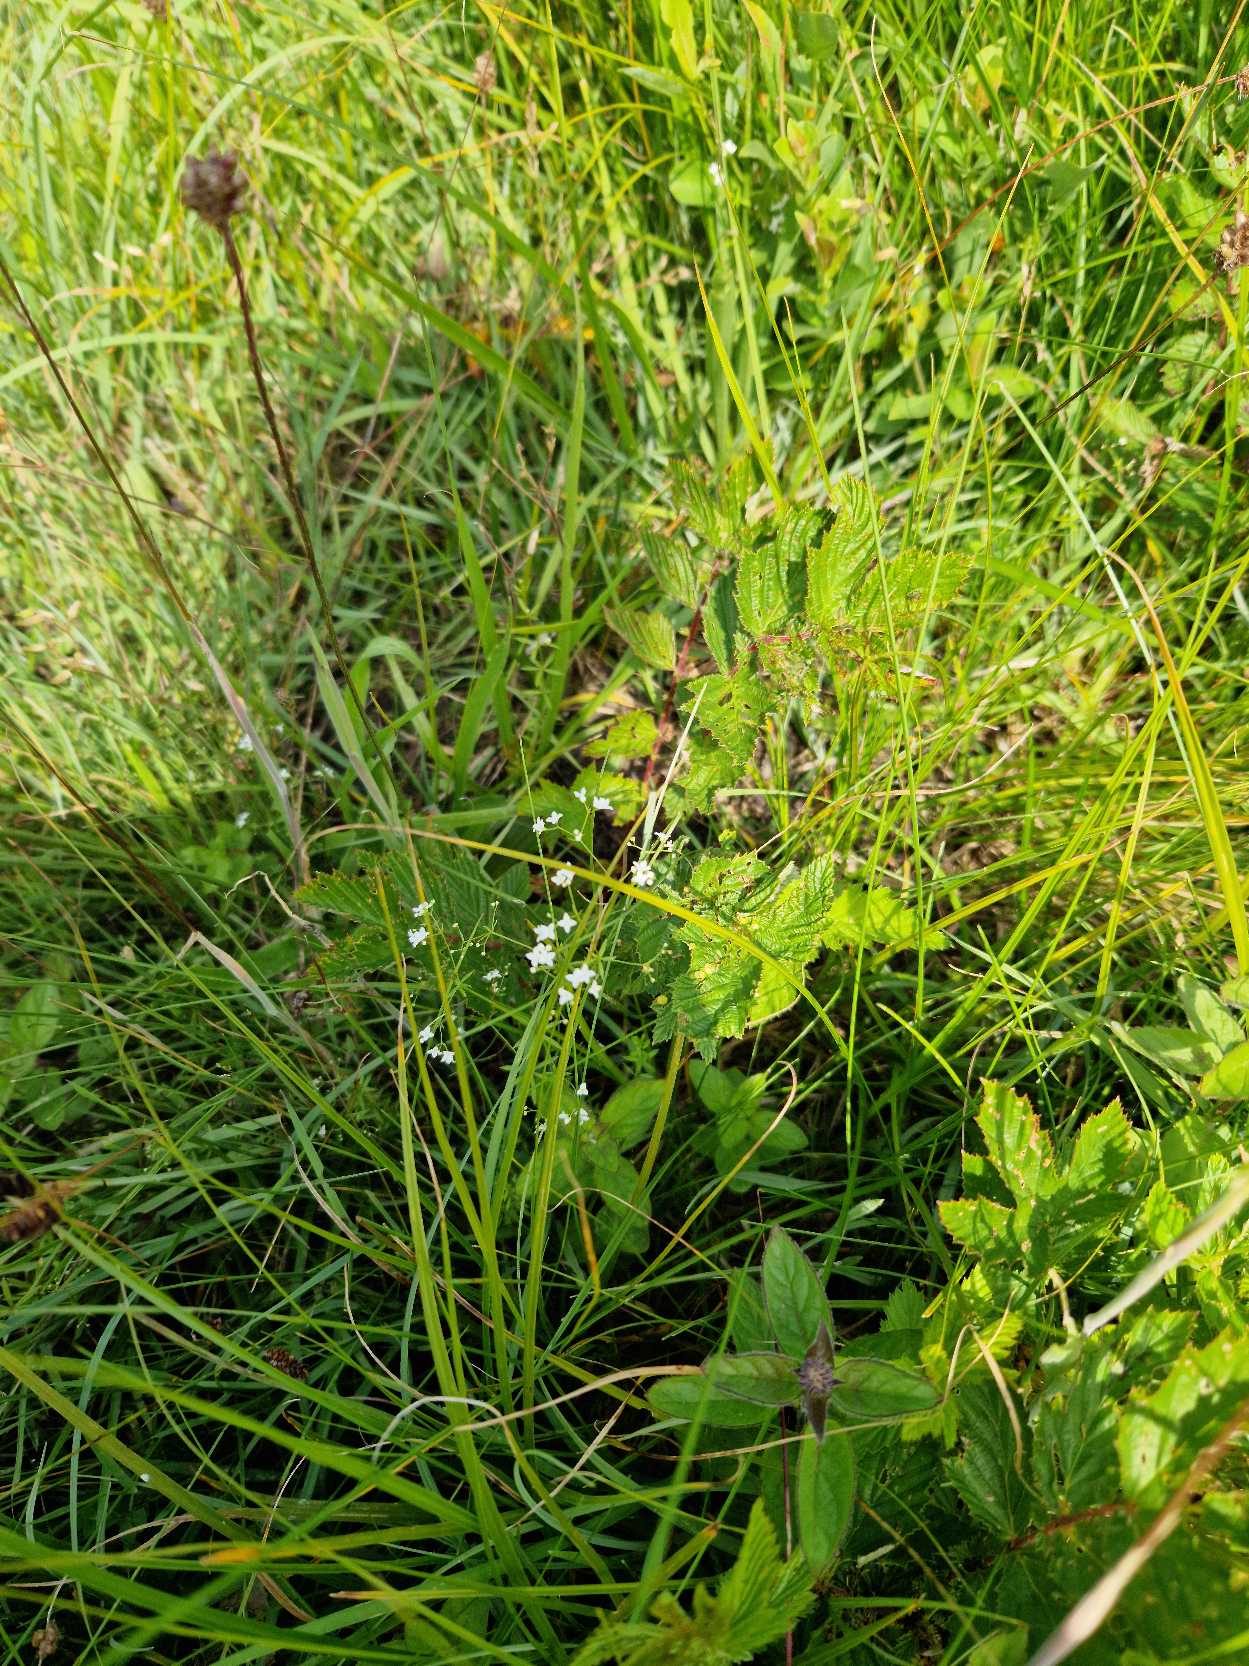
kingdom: Plantae
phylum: Tracheophyta
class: Magnoliopsida
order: Gentianales
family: Rubiaceae
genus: Galium
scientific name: Galium palustre
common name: Kær-snerre
